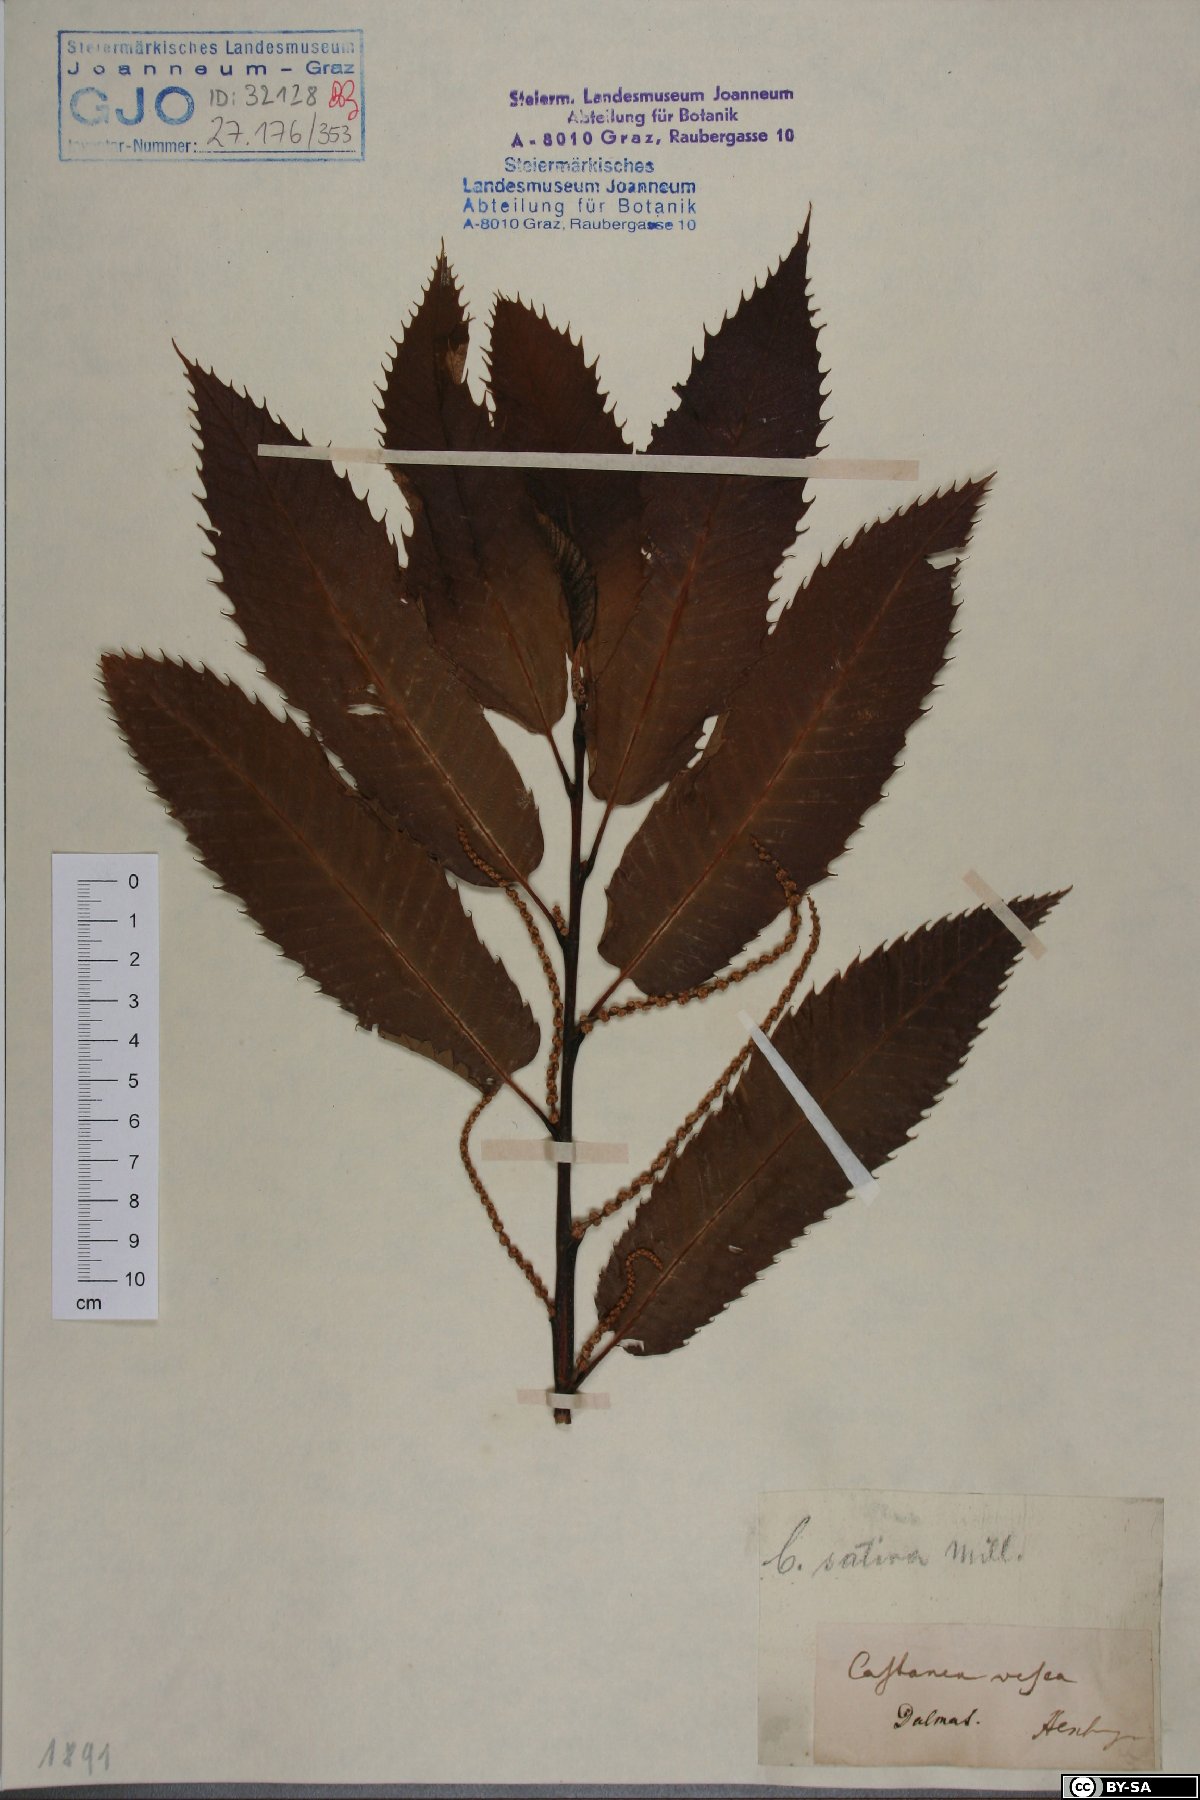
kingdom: Plantae
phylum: Tracheophyta
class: Magnoliopsida
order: Fagales
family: Fagaceae
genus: Castanea
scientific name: Castanea sativa
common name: Sweet chestnut
